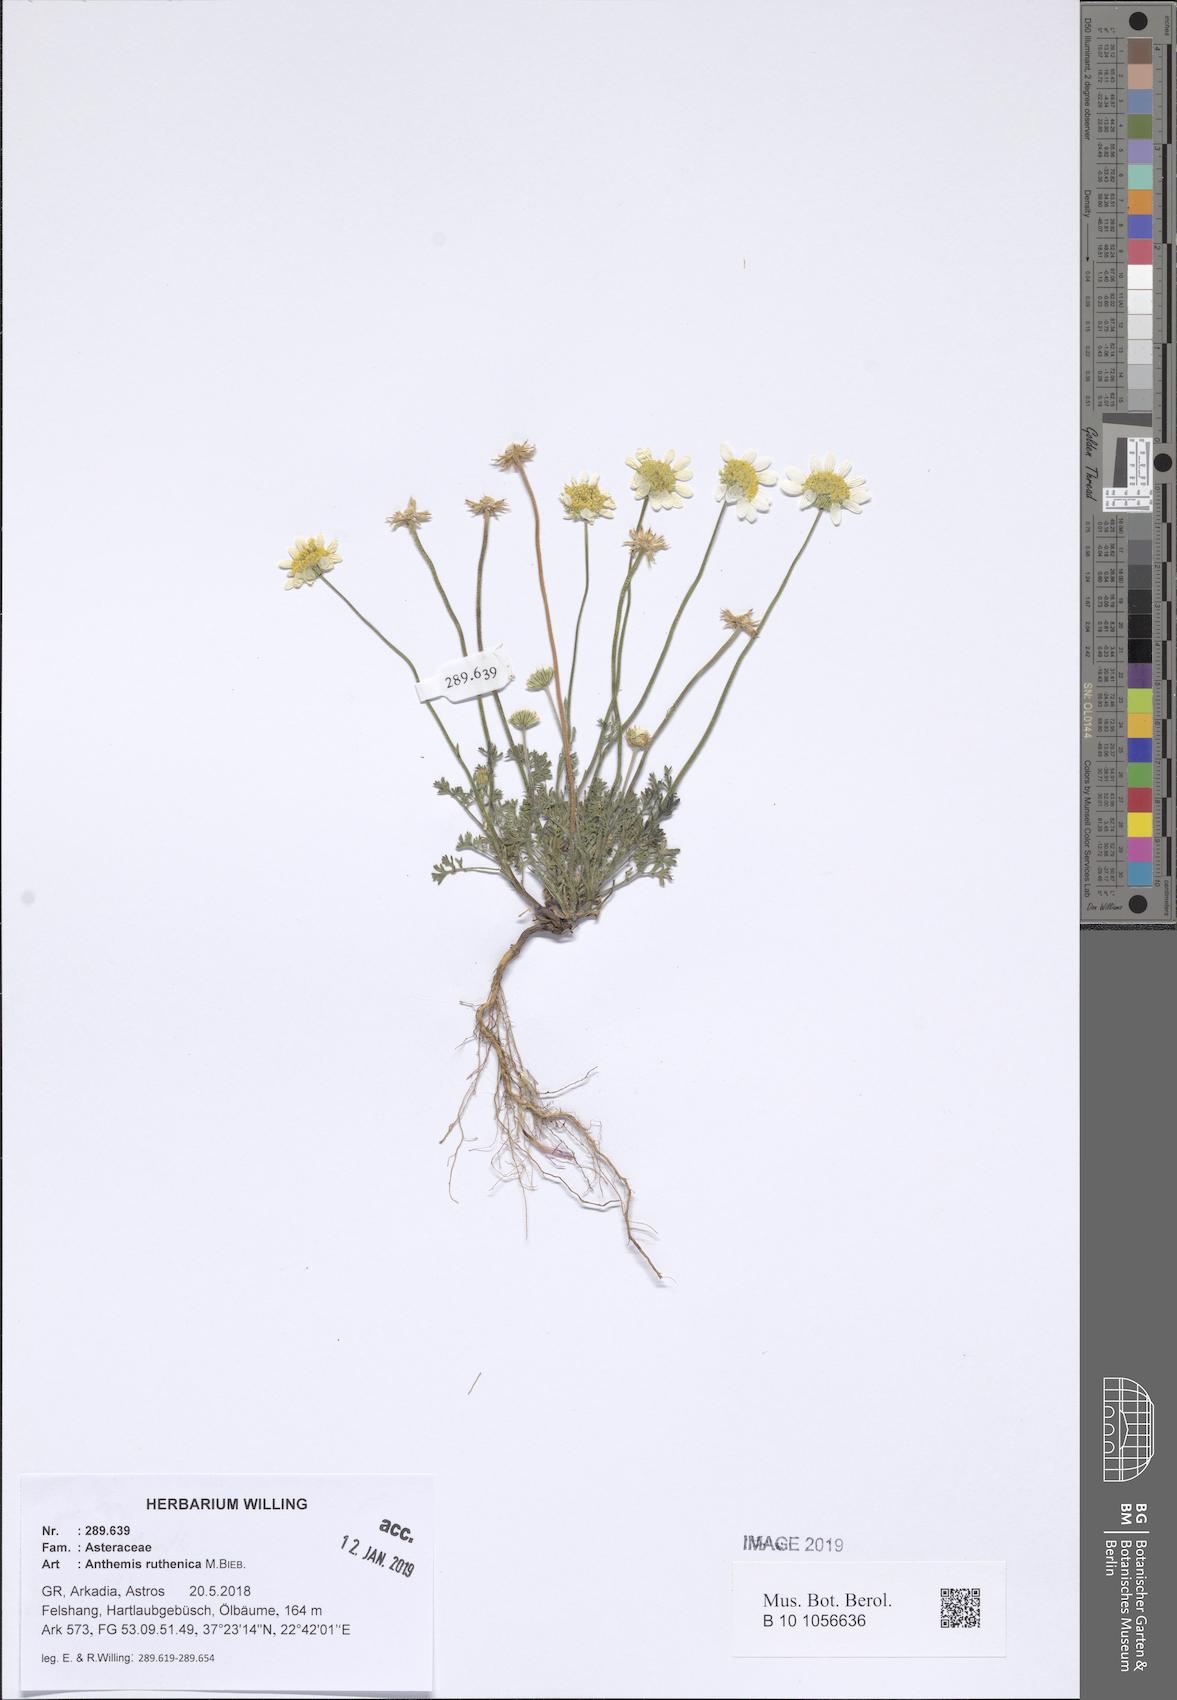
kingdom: Plantae
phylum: Tracheophyta
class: Magnoliopsida
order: Asterales
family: Asteraceae
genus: Anthemis
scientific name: Anthemis ruthenica
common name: Eastern chamomile
